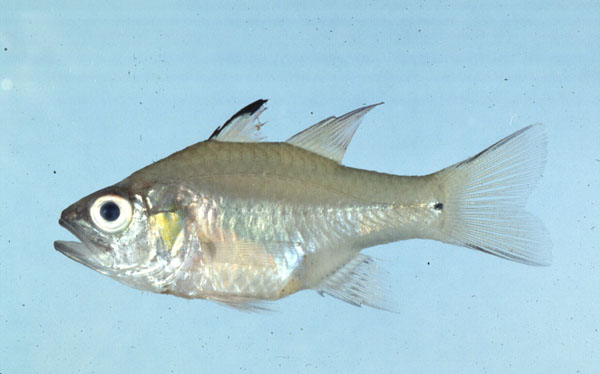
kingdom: Animalia
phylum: Chordata
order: Perciformes
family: Apogonidae
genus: Fibramia
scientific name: Fibramia lateralis
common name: Ceram cardinalfish
